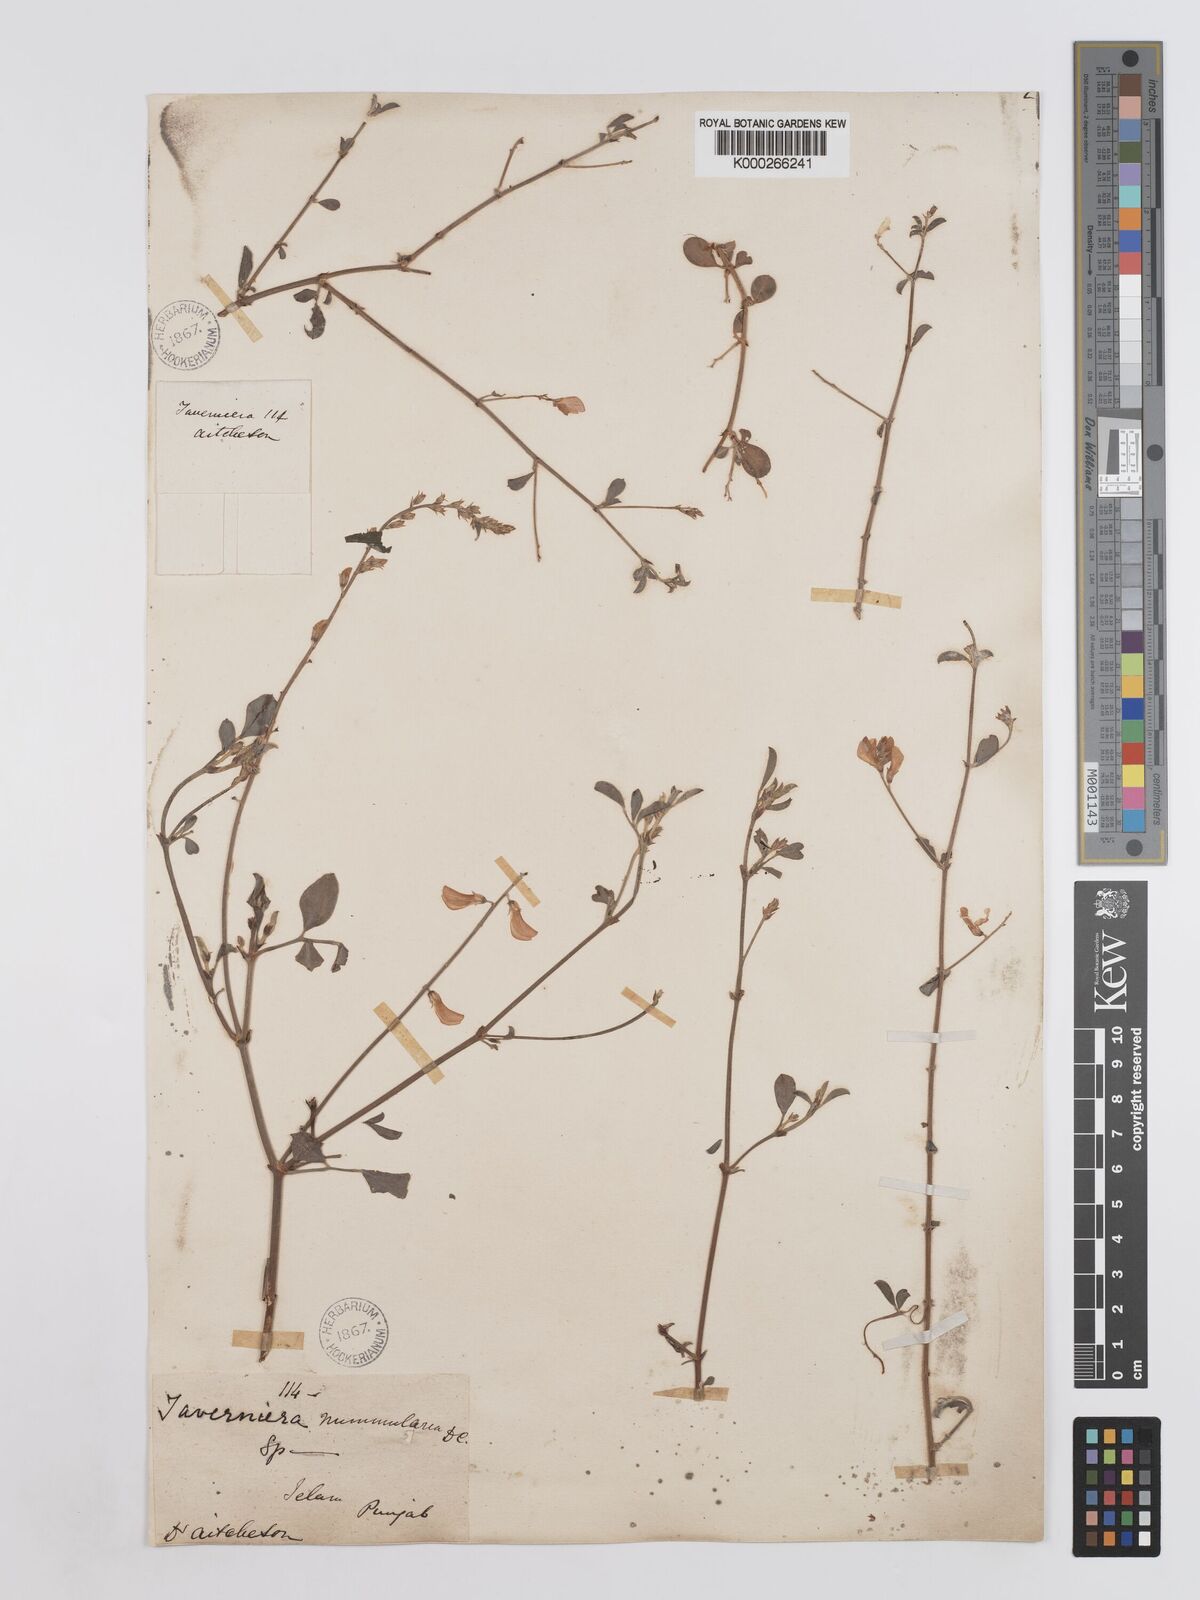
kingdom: Plantae
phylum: Tracheophyta
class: Magnoliopsida
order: Fabales
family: Fabaceae
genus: Taverniera
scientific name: Taverniera nummularia
